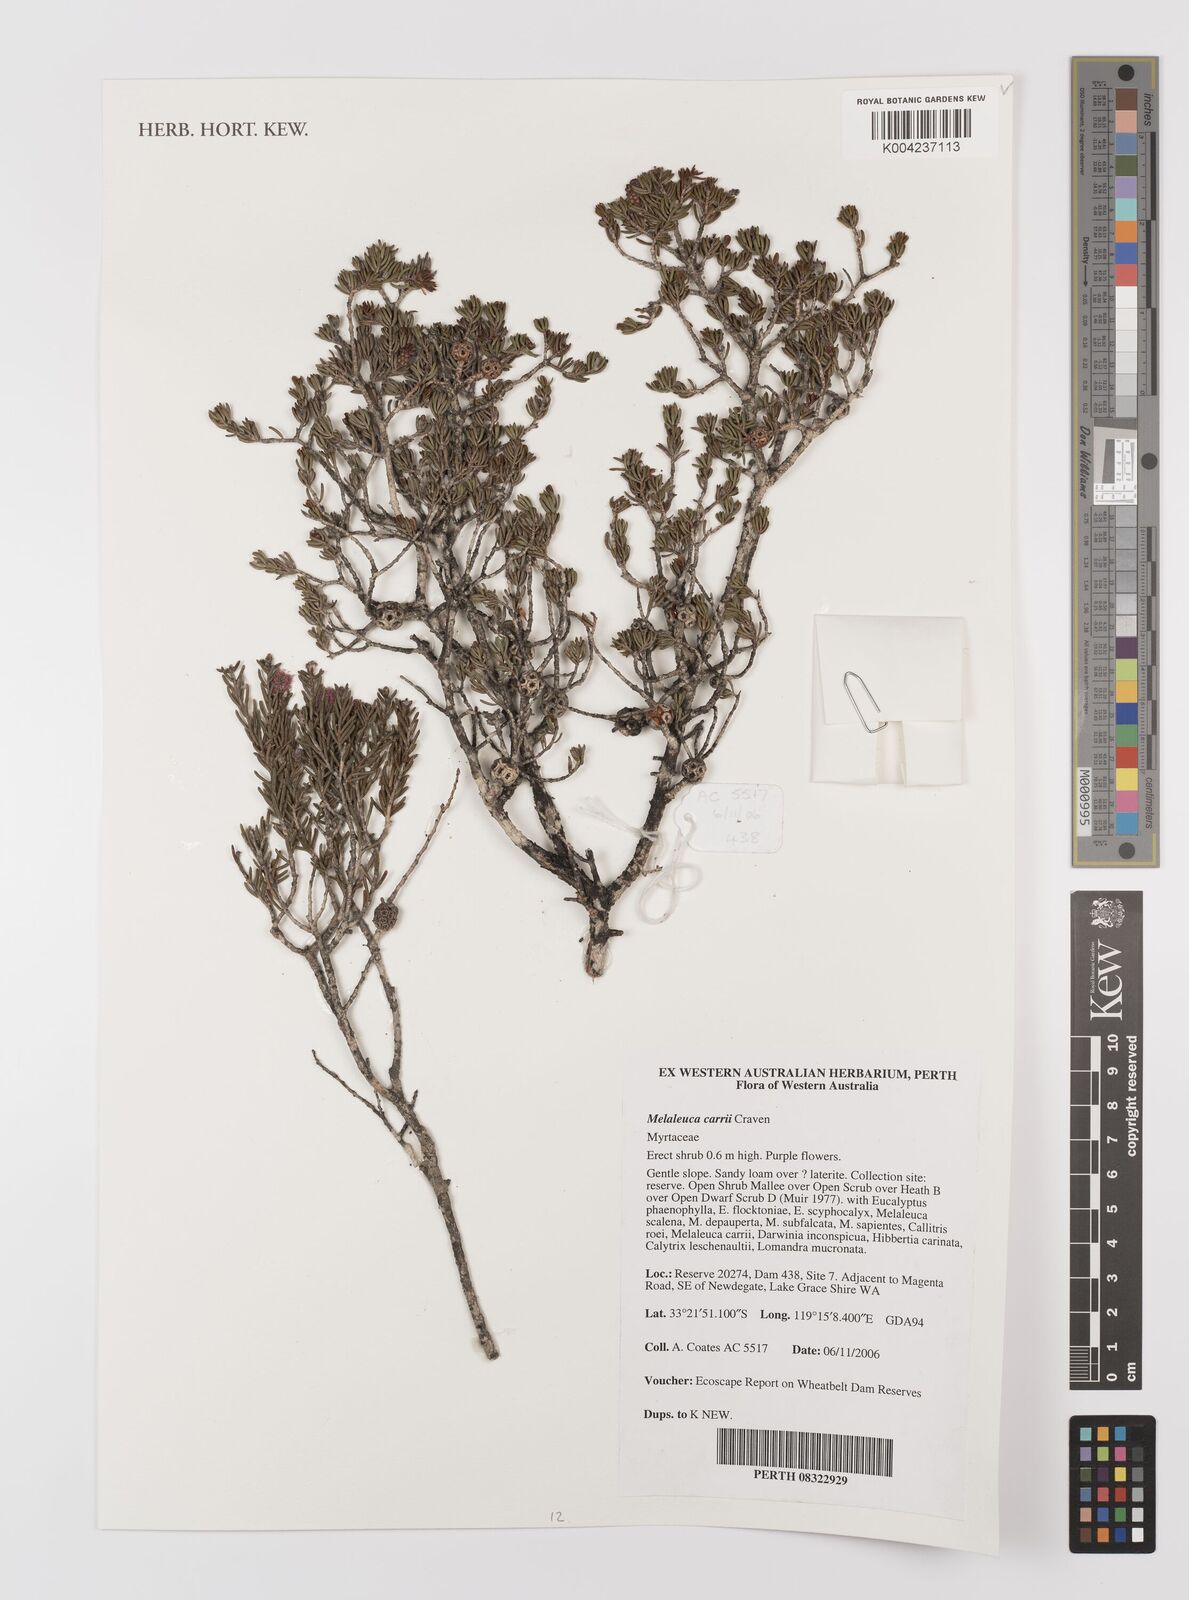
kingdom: Plantae
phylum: Tracheophyta
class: Magnoliopsida
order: Myrtales
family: Myrtaceae
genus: Melaleuca
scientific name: Melaleuca carrii
